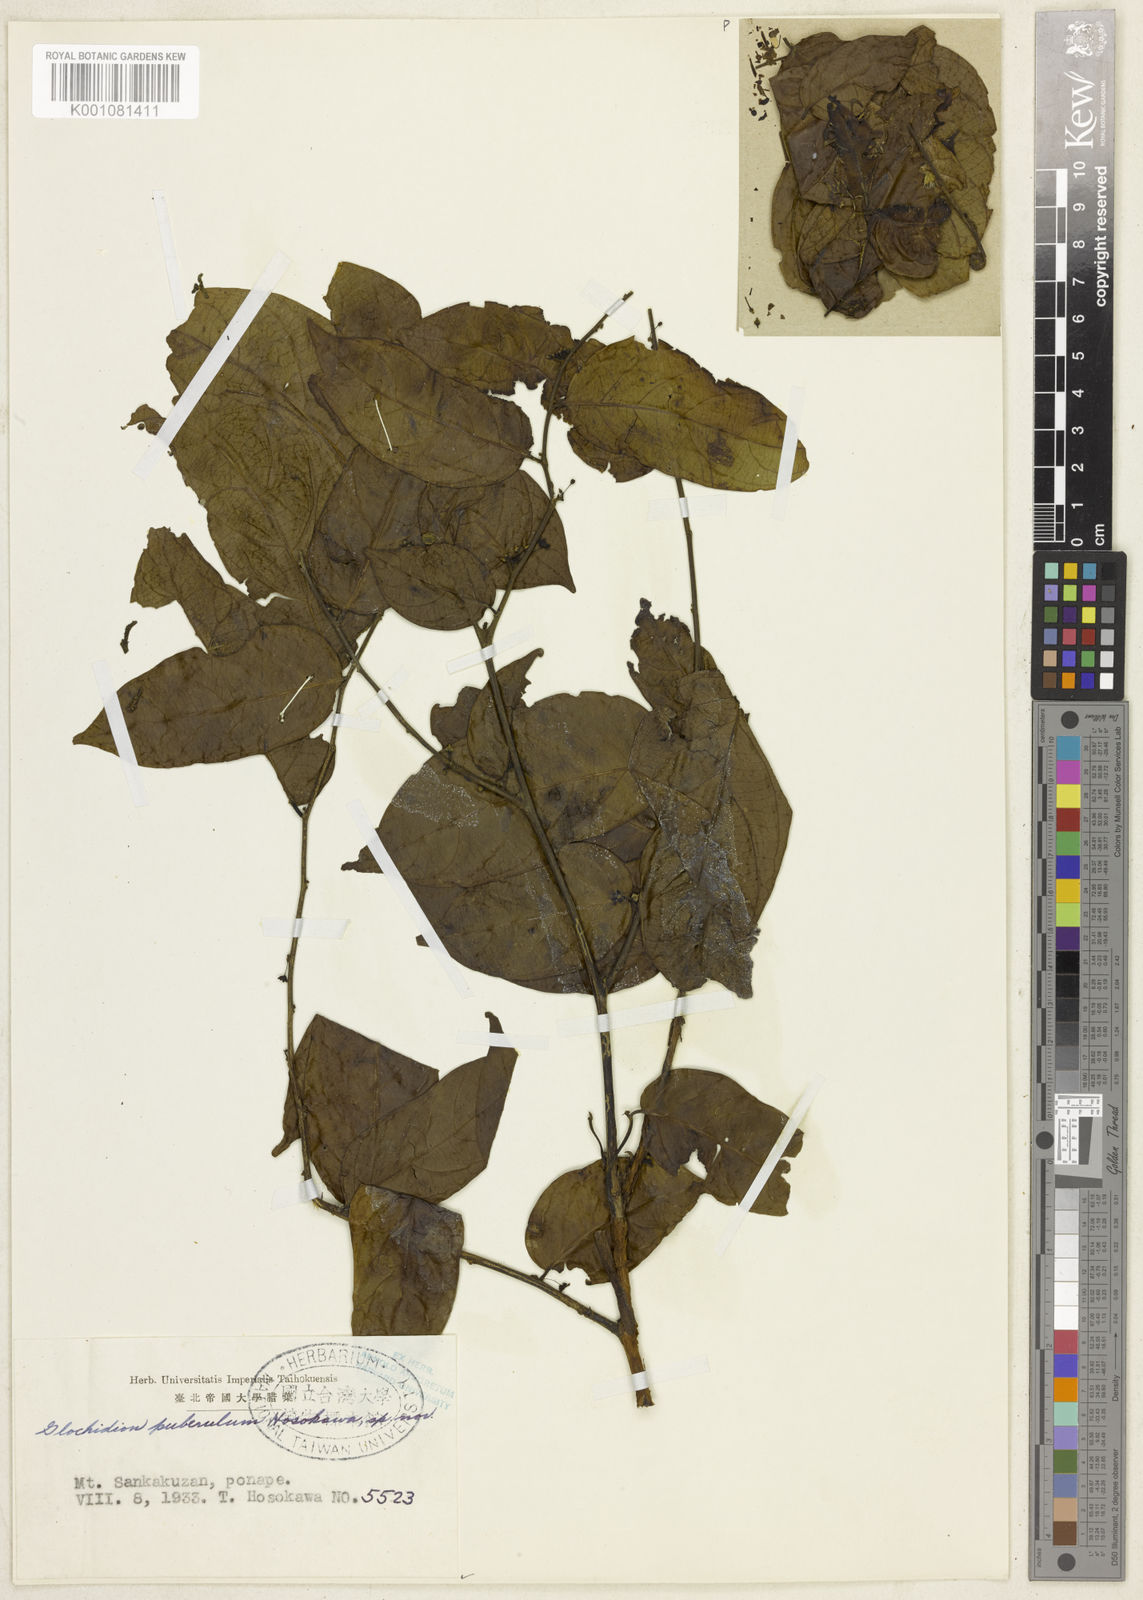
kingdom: Plantae
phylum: Tracheophyta
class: Magnoliopsida
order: Malpighiales
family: Phyllanthaceae
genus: Glochidion
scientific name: Glochidion puberulum
